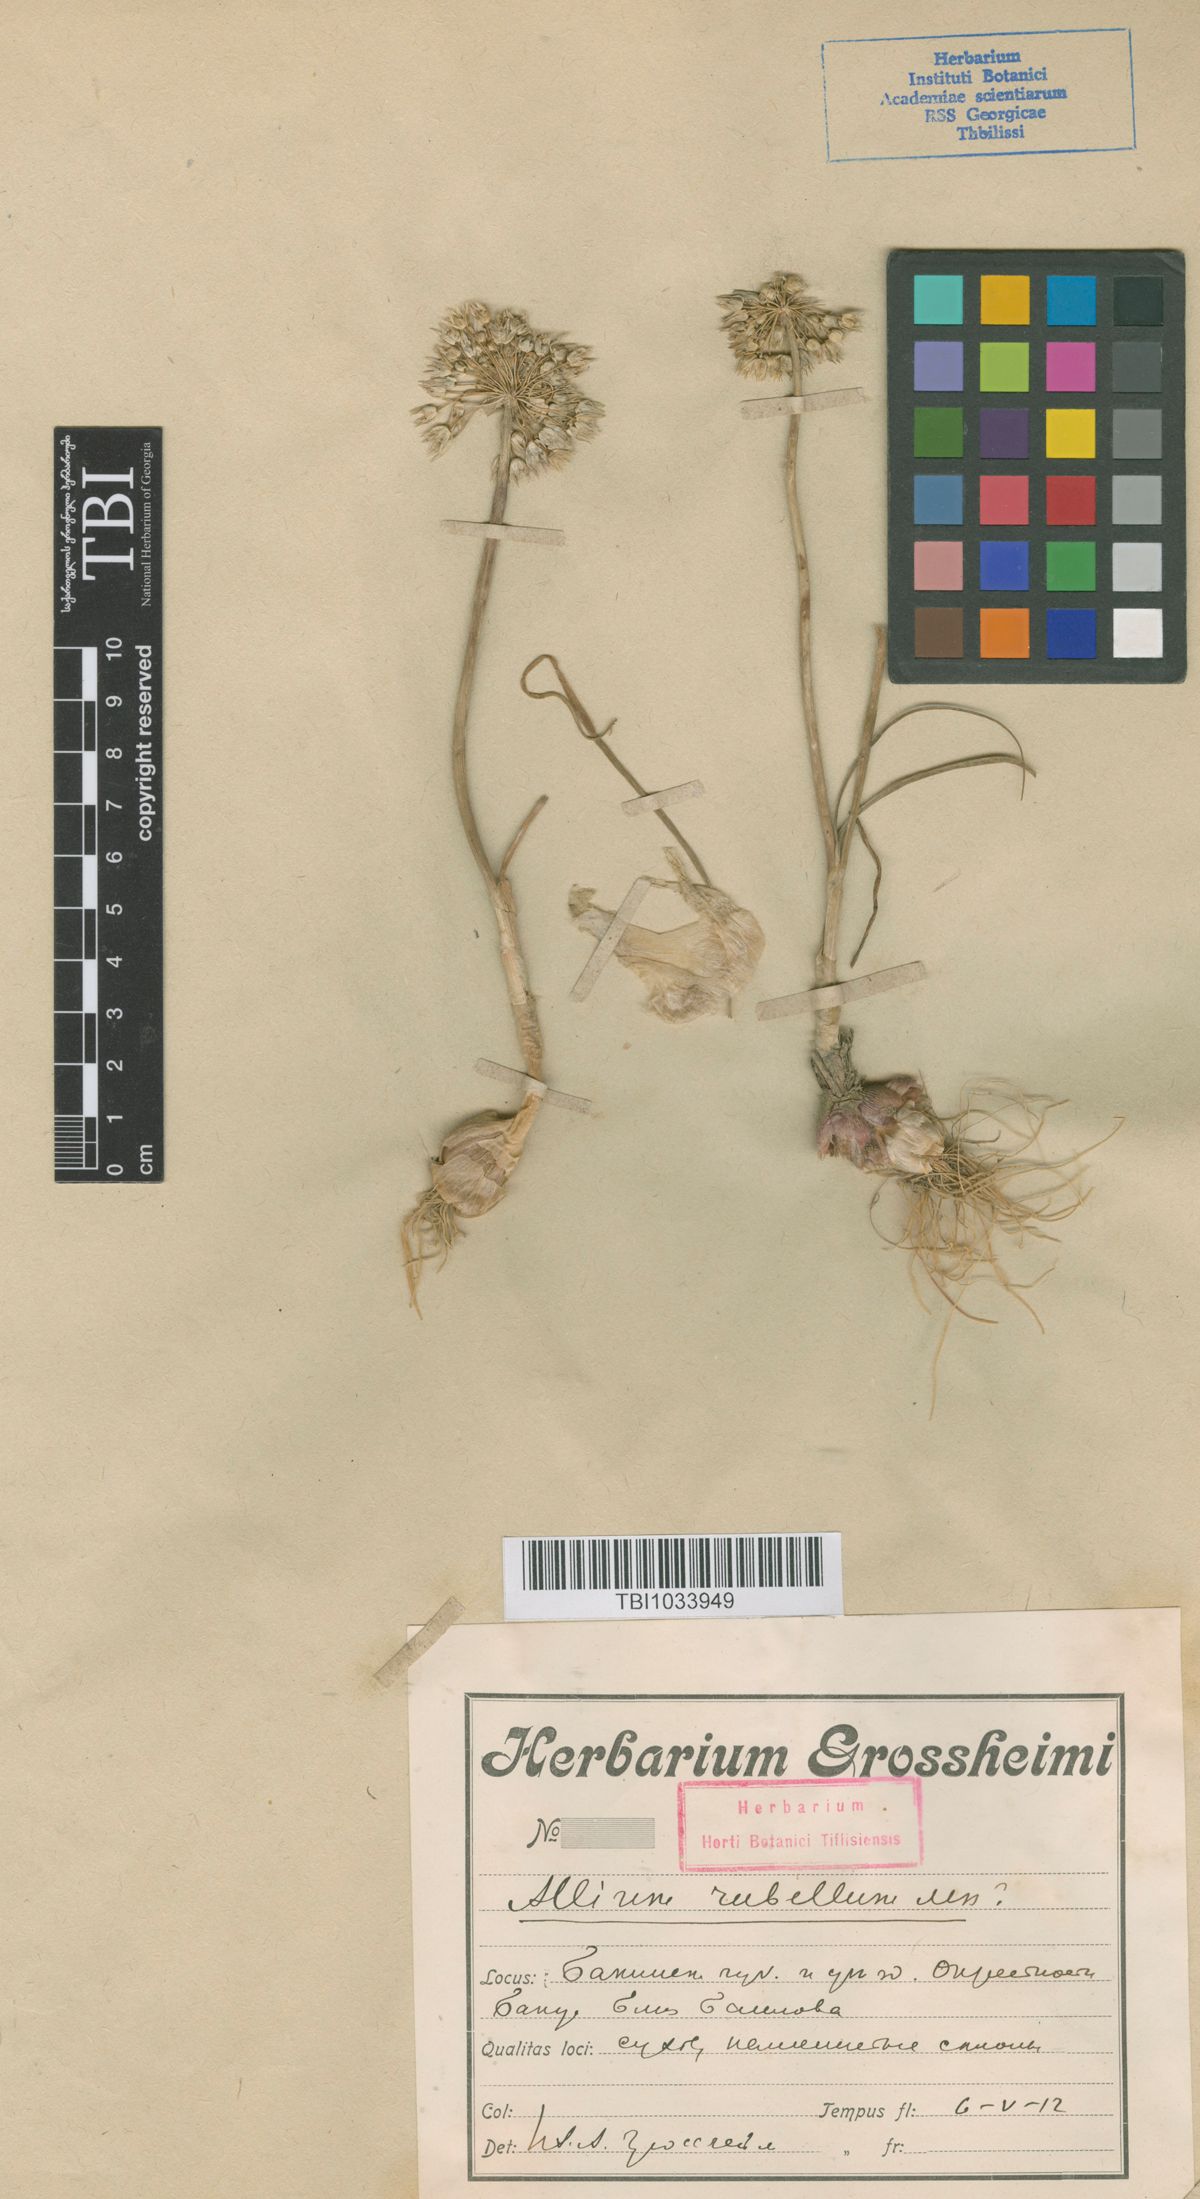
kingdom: Plantae
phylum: Tracheophyta
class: Liliopsida
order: Asparagales
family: Amaryllidaceae
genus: Allium
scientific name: Allium rubellum
